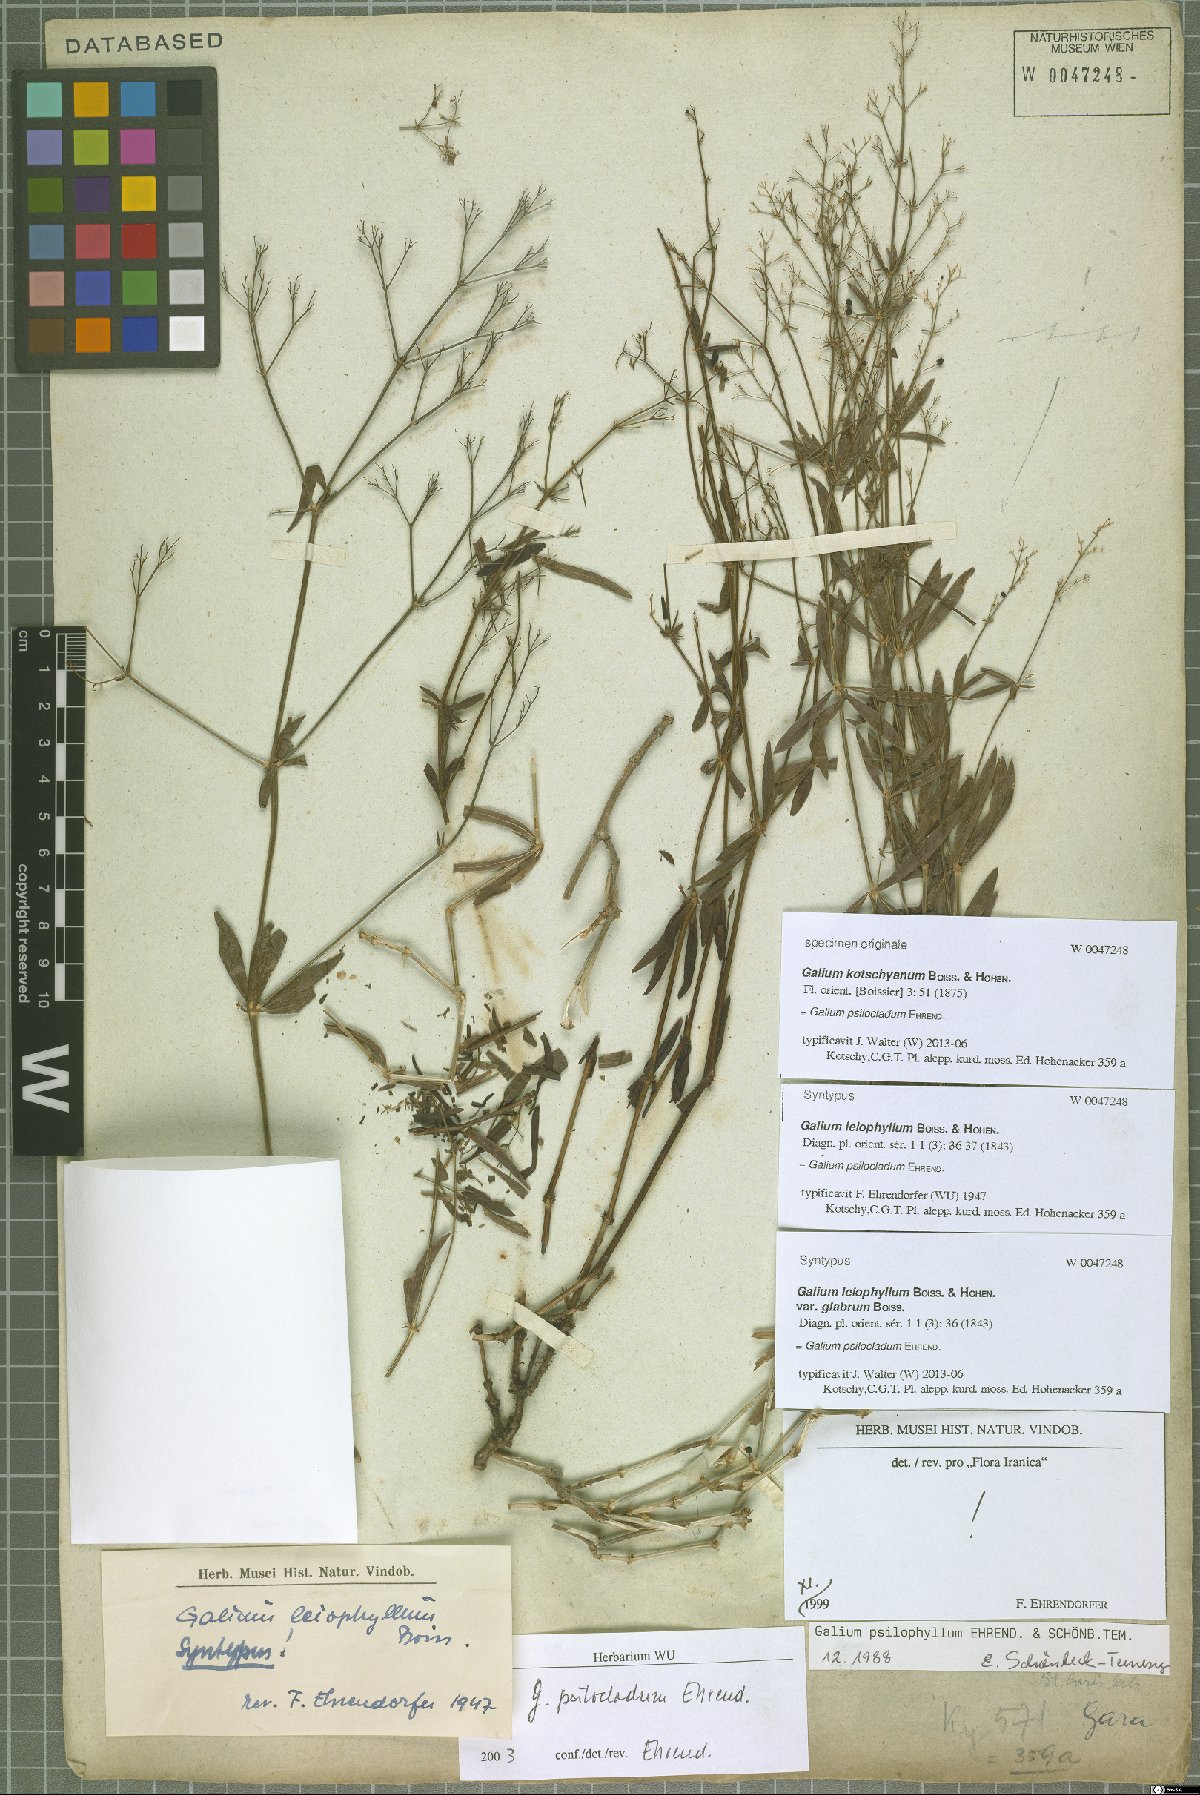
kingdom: Plantae
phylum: Tracheophyta
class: Magnoliopsida
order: Gentianales
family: Rubiaceae
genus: Galium
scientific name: Galium psilocladum
